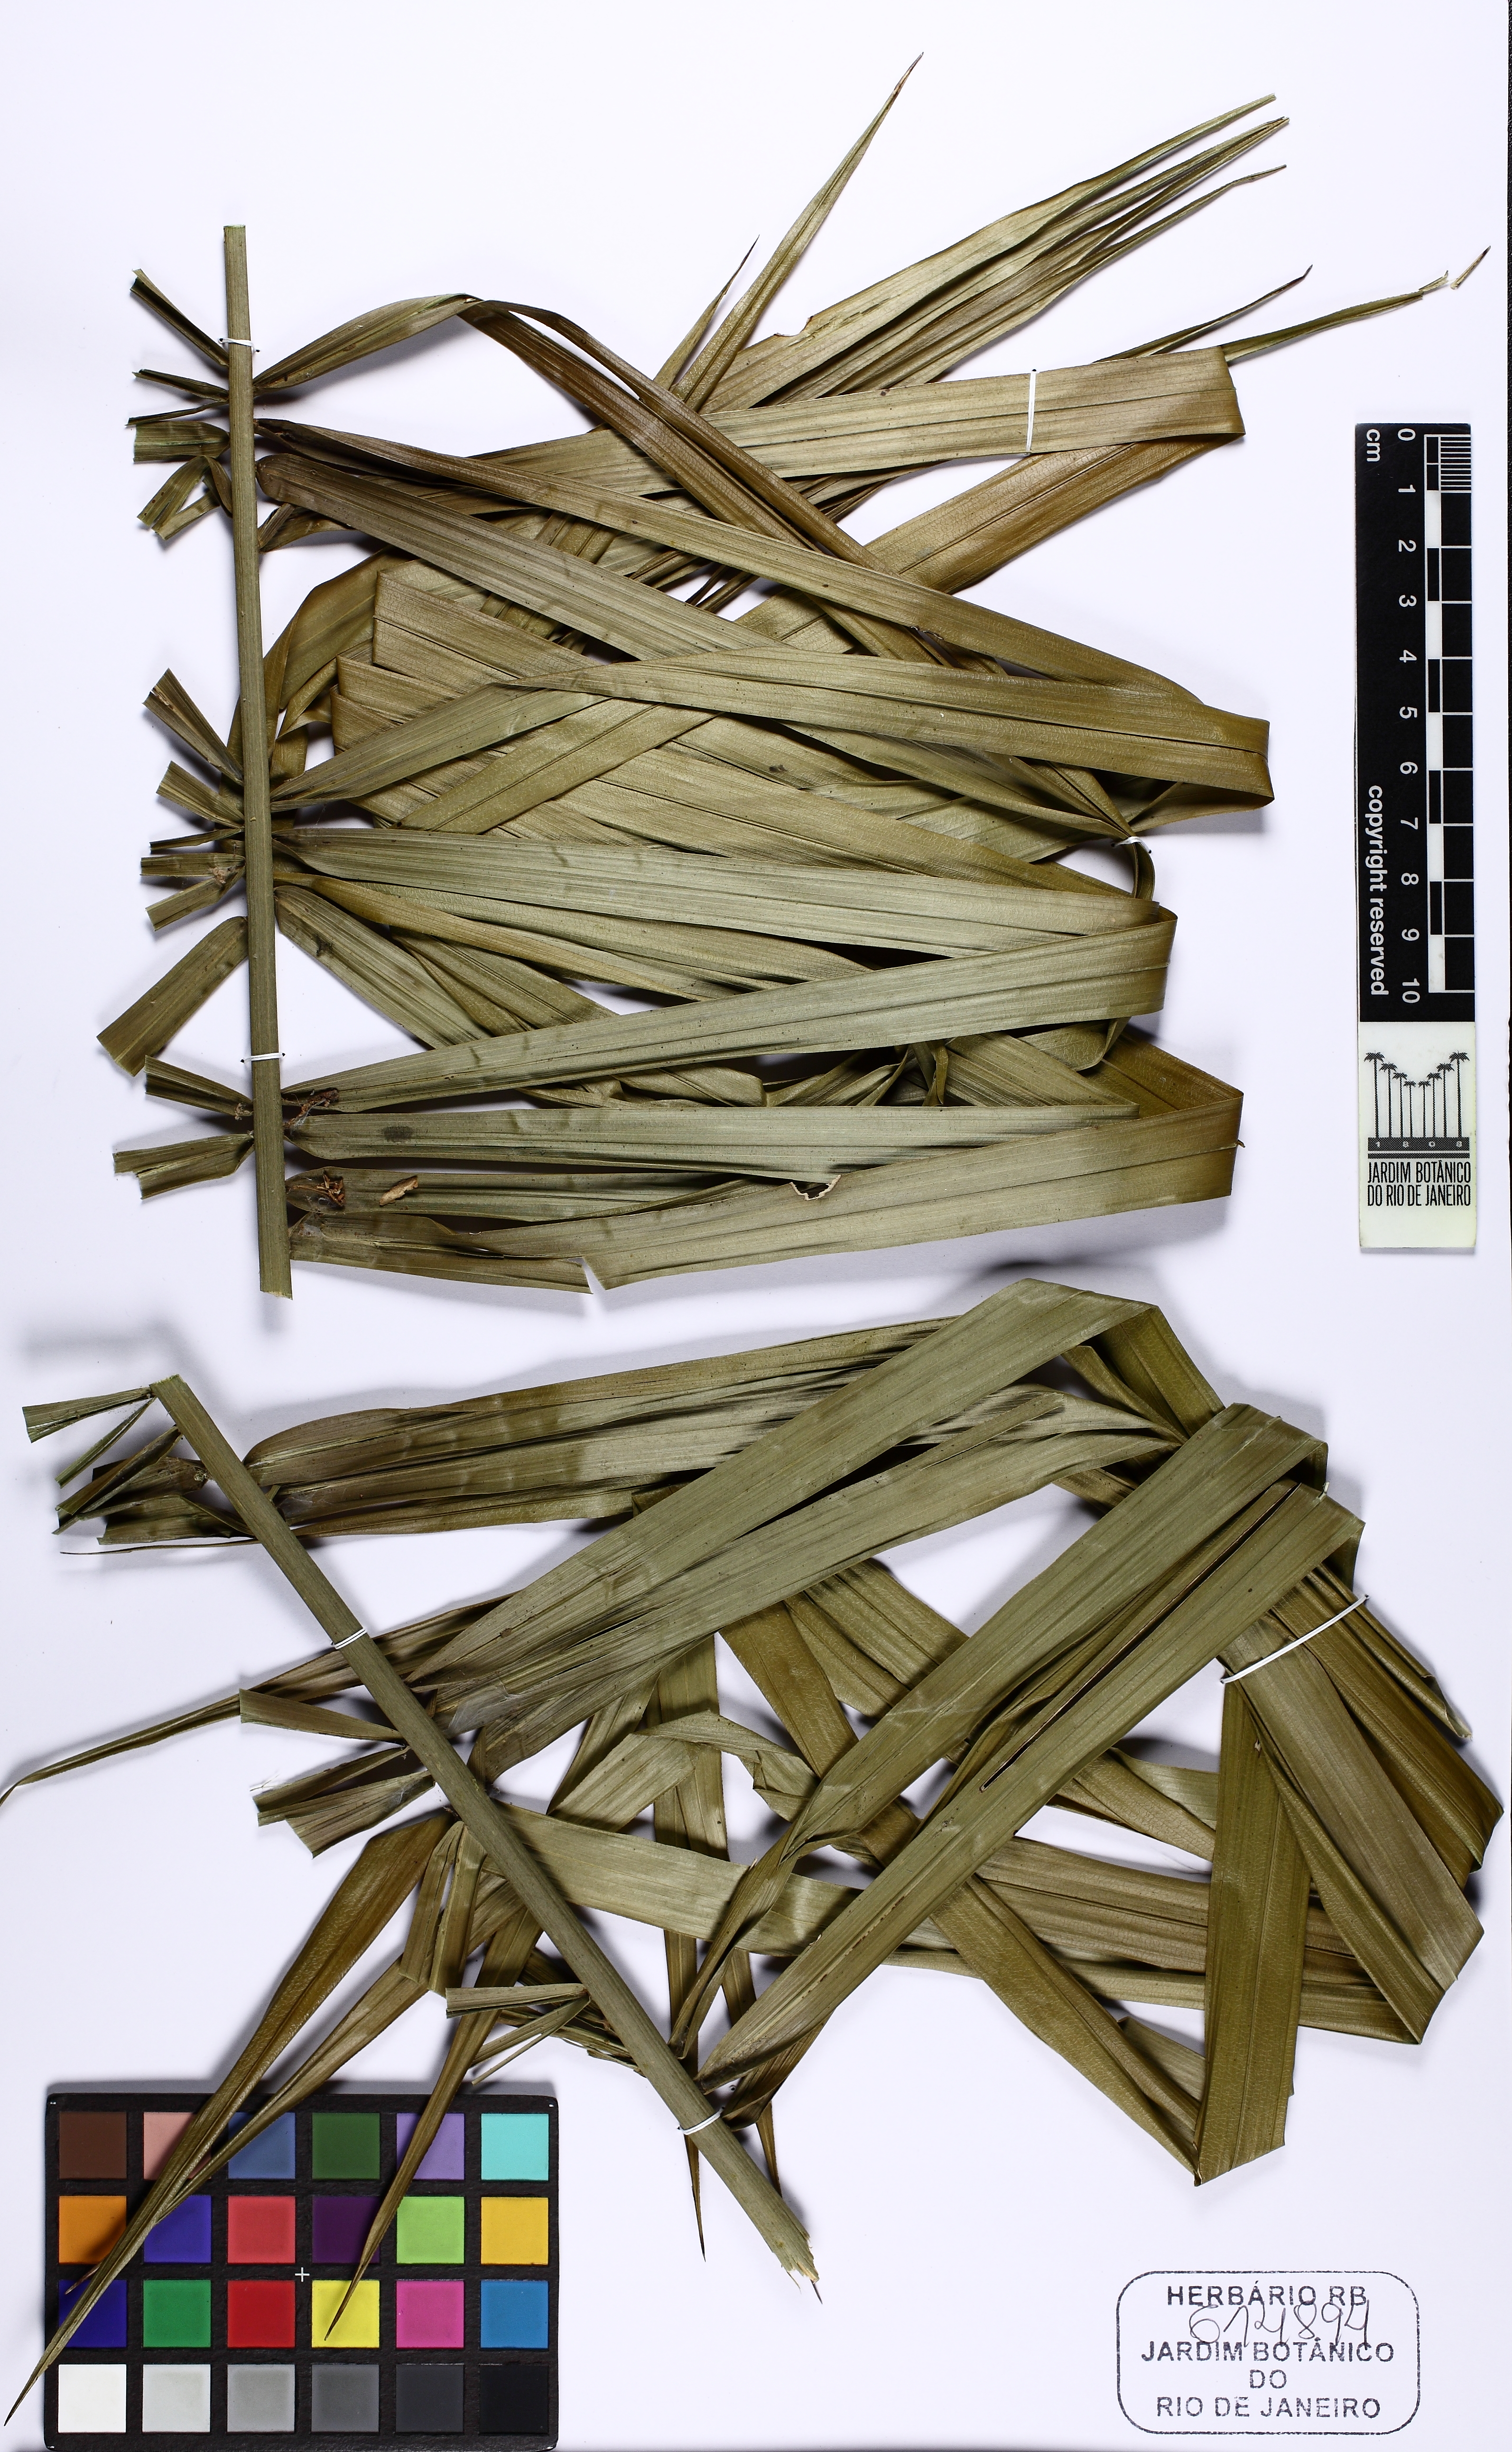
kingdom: Plantae
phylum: Tracheophyta
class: Liliopsida
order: Arecales
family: Arecaceae
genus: Syagrus
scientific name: Syagrus
